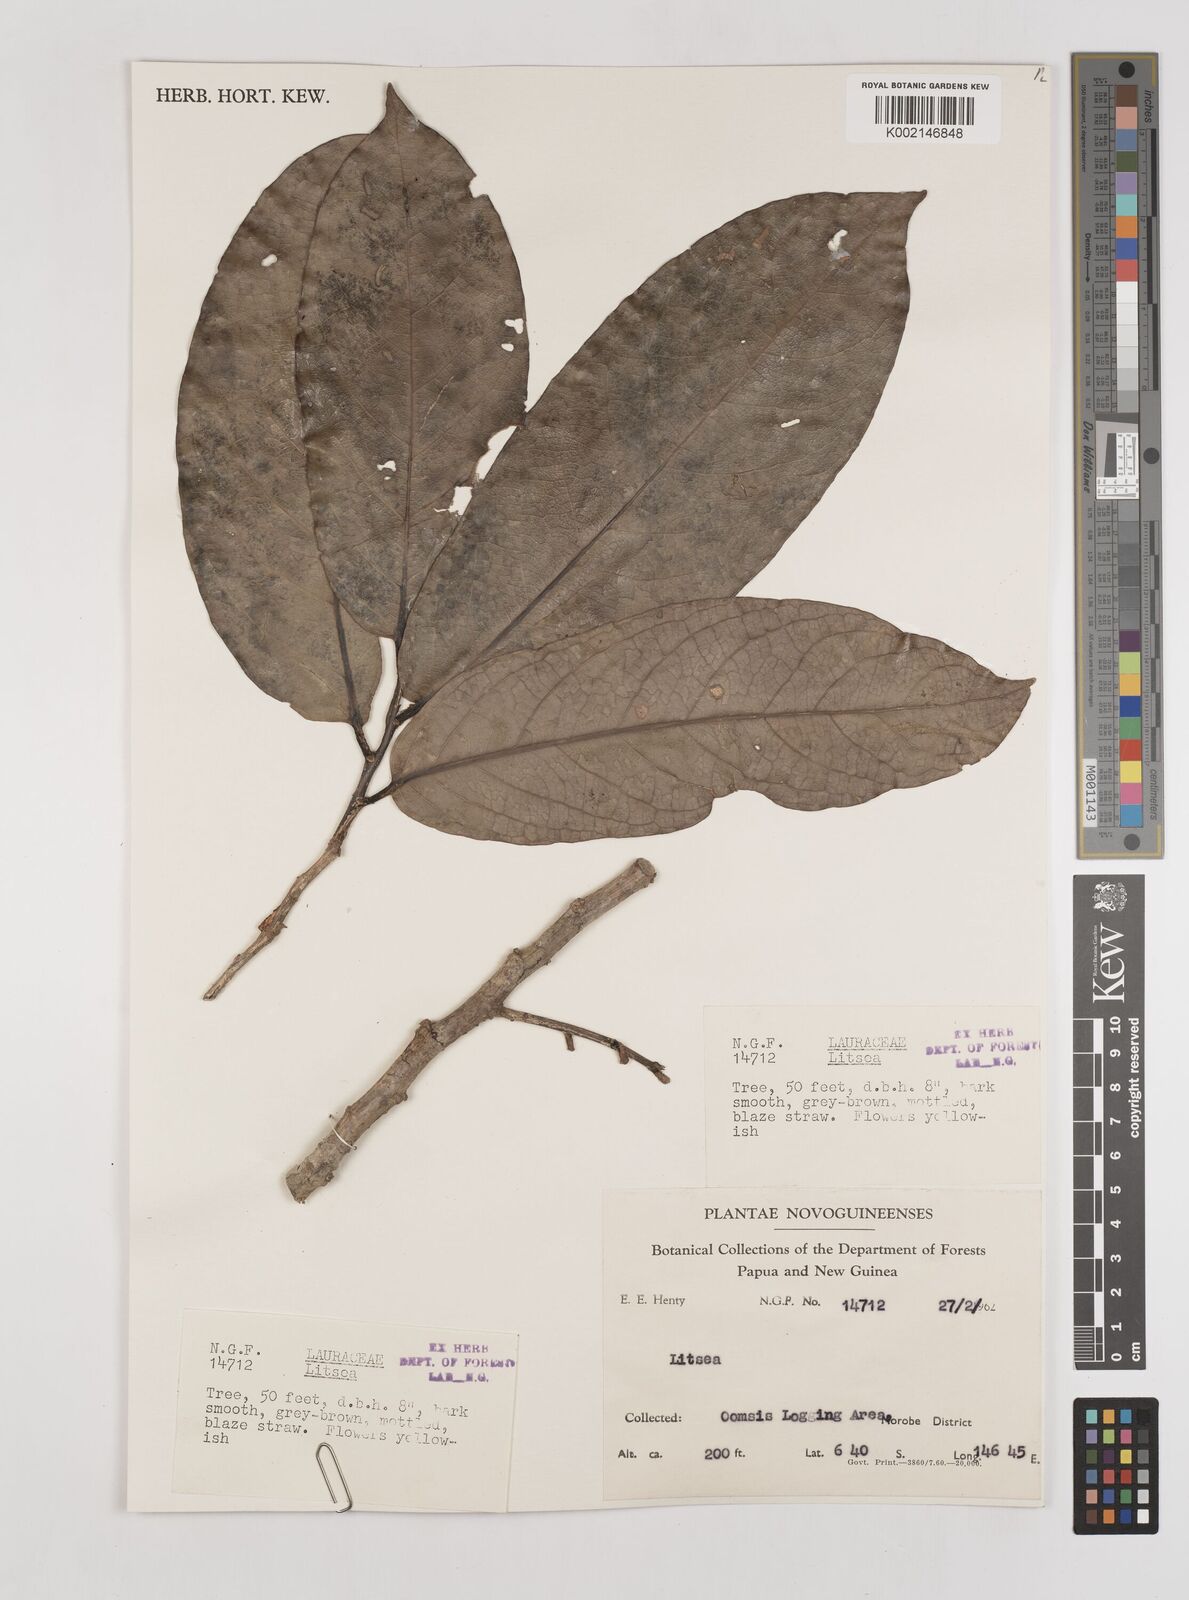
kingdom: Plantae
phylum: Tracheophyta
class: Magnoliopsida
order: Laurales
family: Lauraceae
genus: Litsea
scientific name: Litsea
